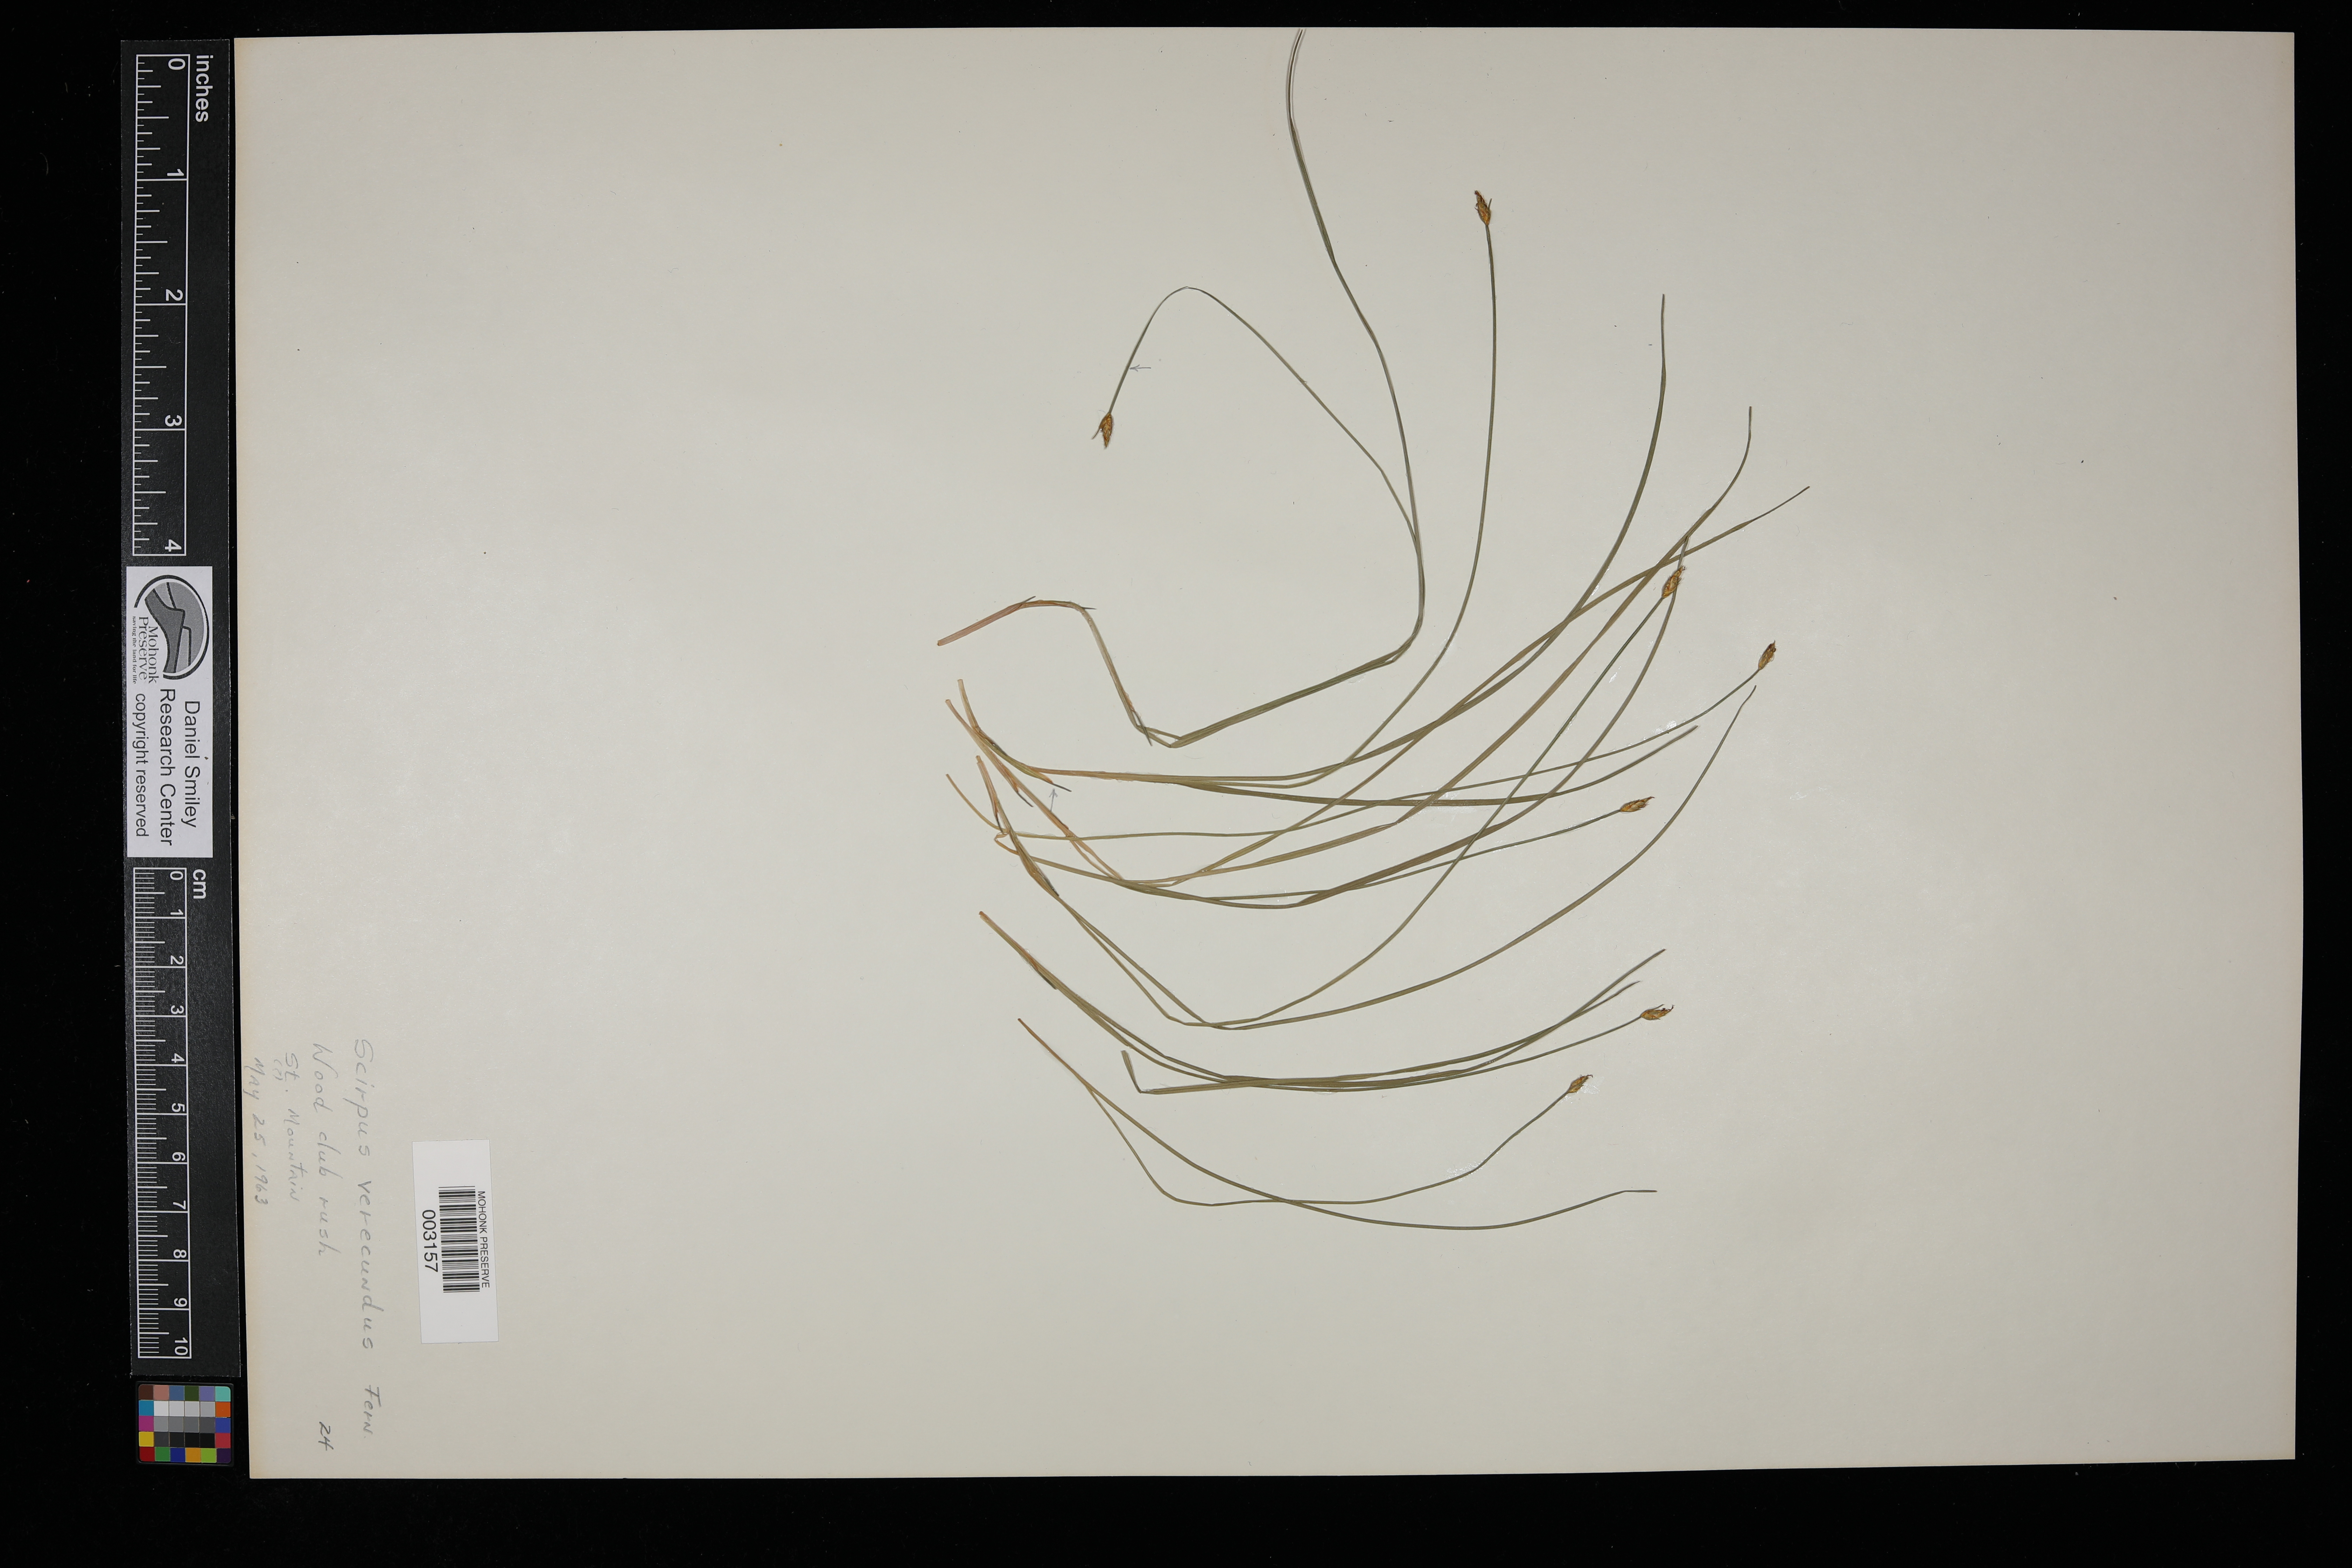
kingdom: Plantae
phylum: Tracheophyta
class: Liliopsida
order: Poales
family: Cyperaceae
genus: Trichophorum
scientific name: Trichophorum planifolium
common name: Bashful bulrush
